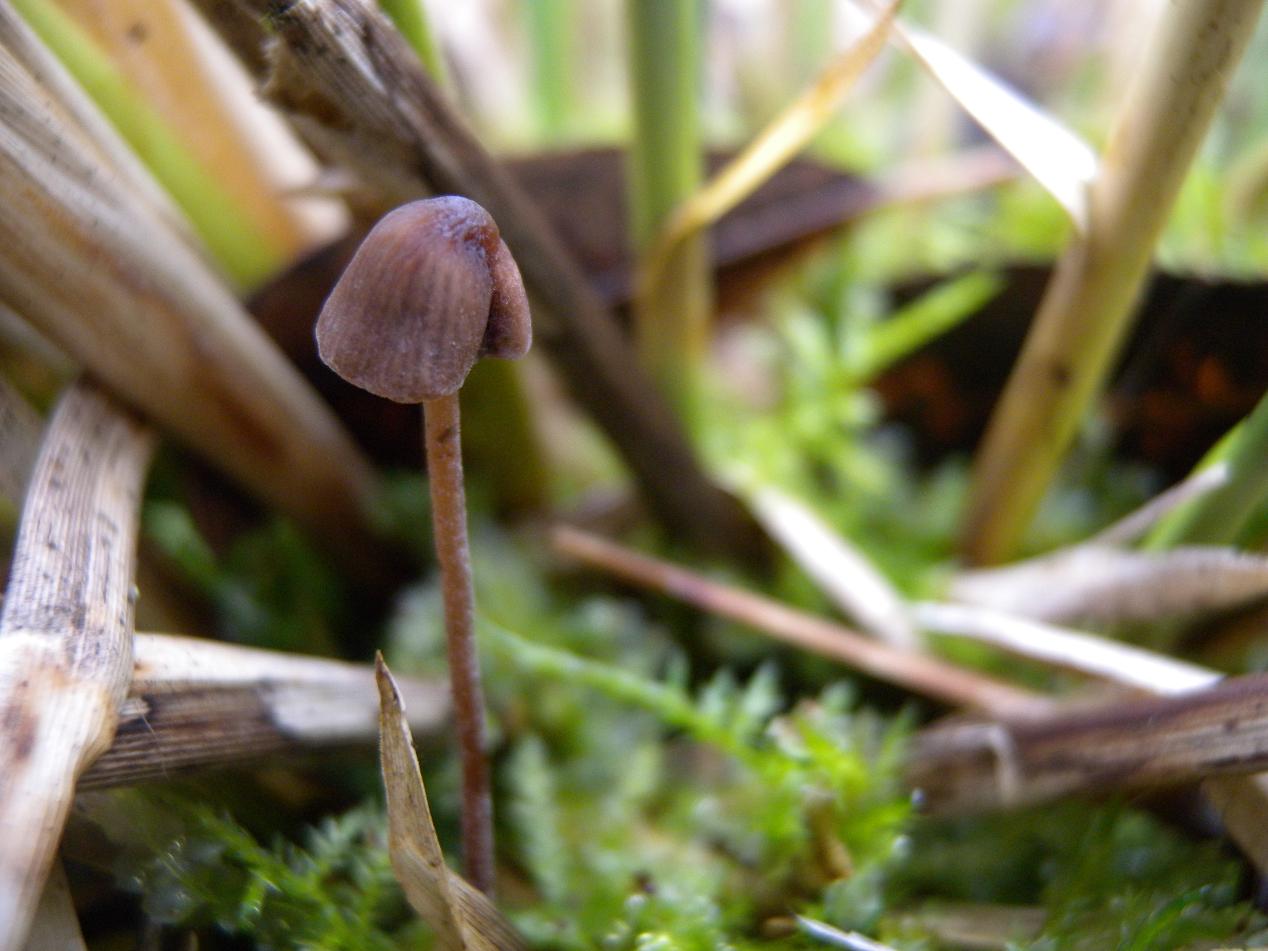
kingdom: Fungi
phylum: Basidiomycota
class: Agaricomycetes
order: Agaricales
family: Bolbitiaceae
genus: Panaeolus
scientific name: Panaeolus acuminatus
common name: høj glanshat
